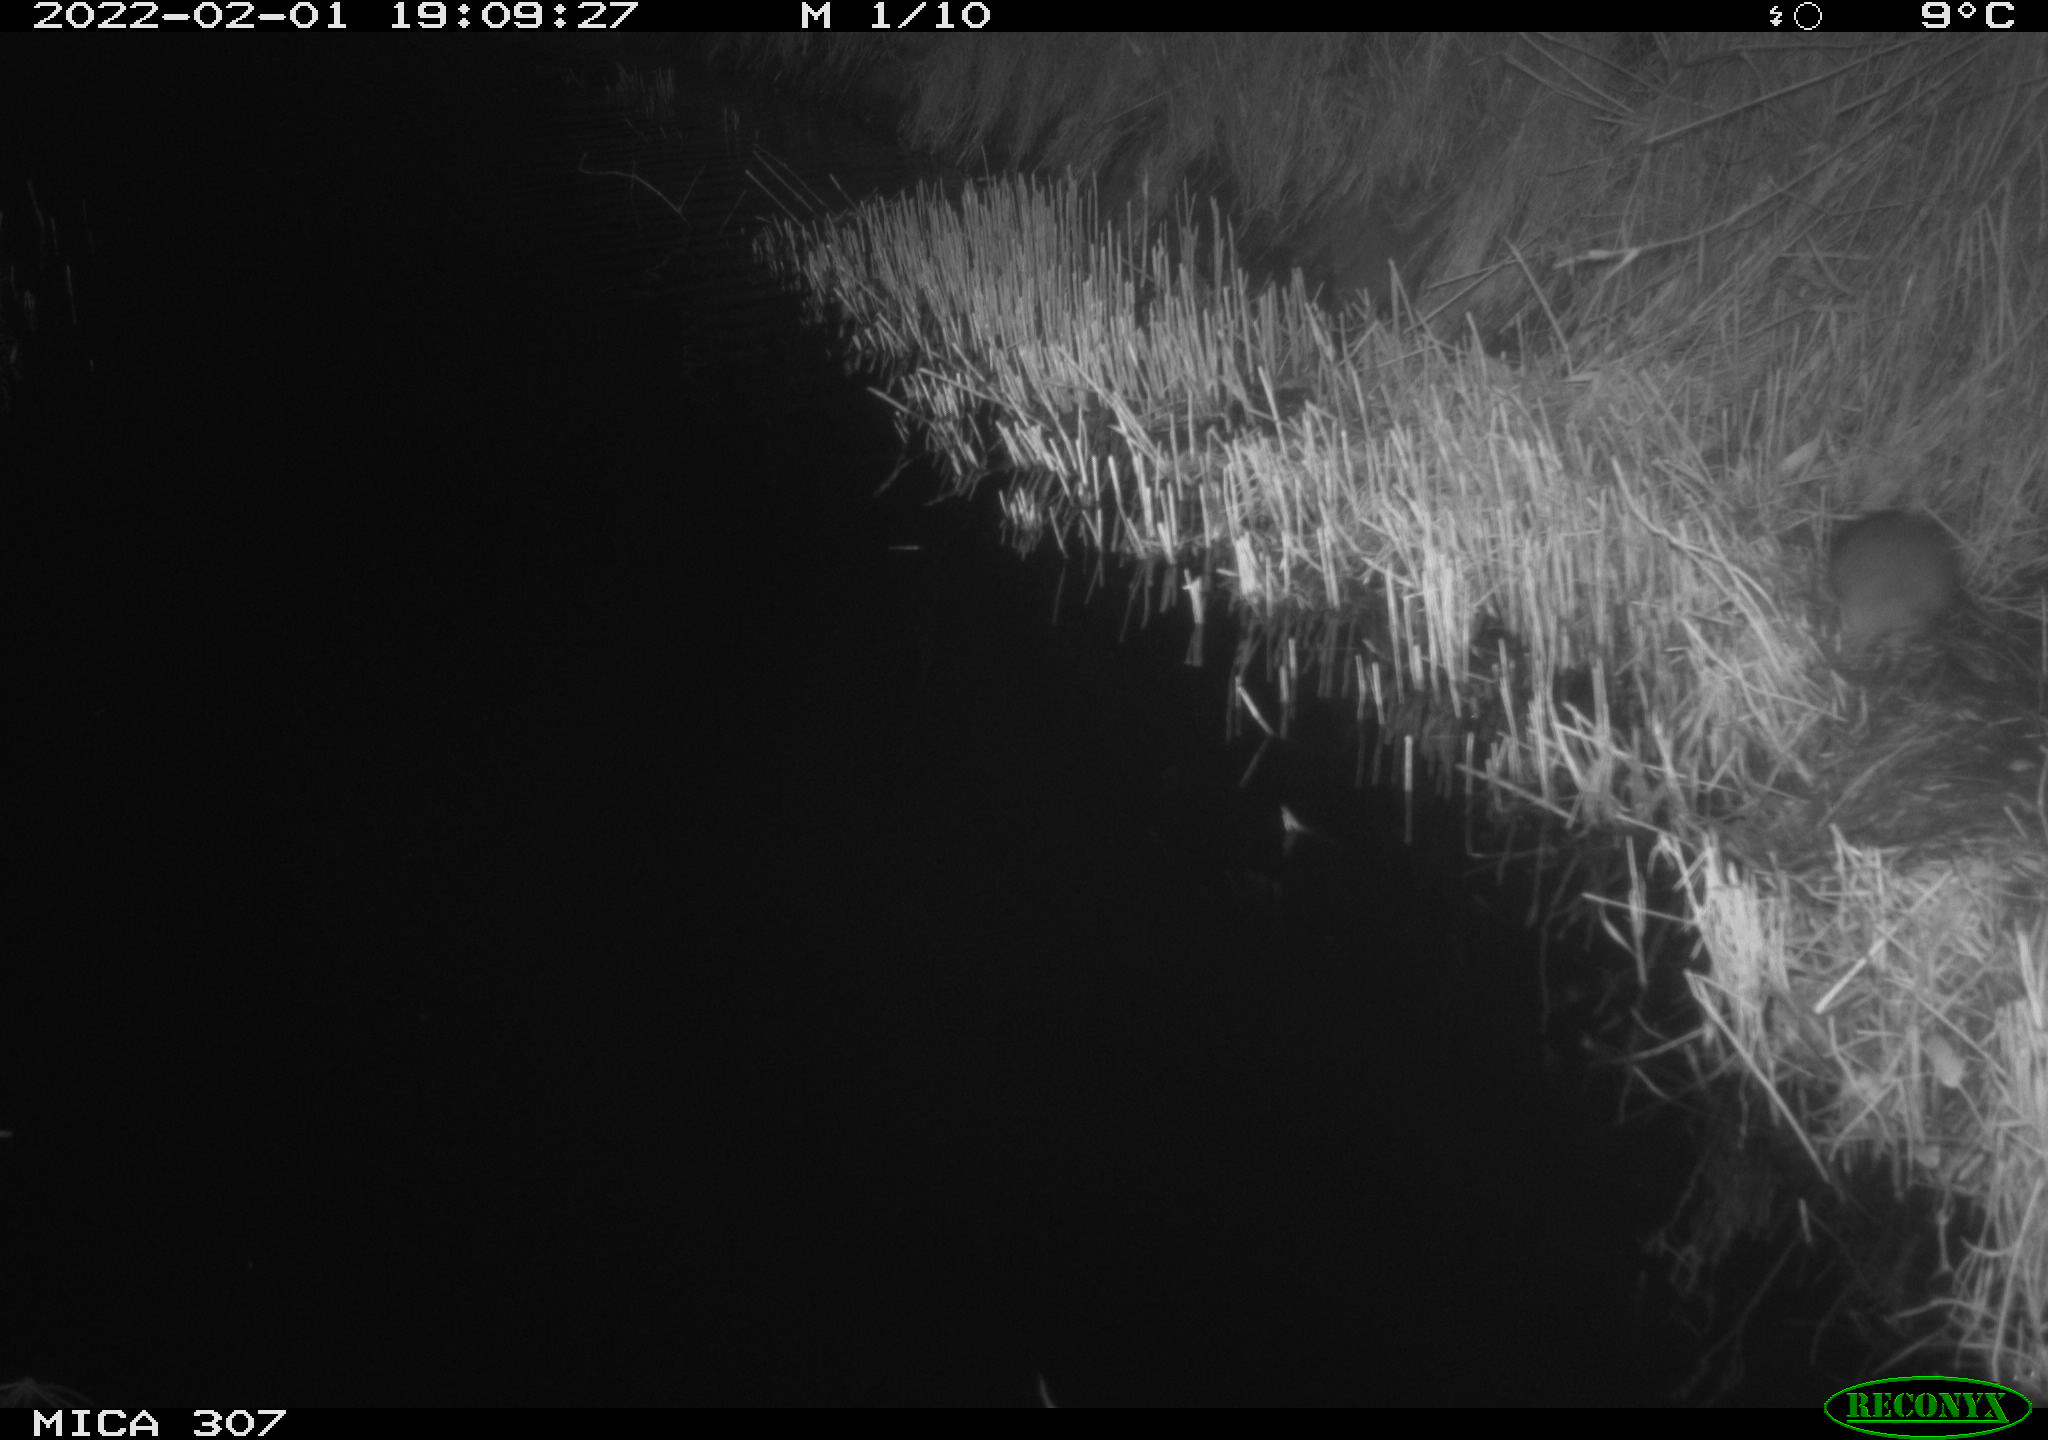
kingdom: Animalia
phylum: Chordata
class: Mammalia
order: Rodentia
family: Muridae
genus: Rattus
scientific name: Rattus norvegicus
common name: Brown rat
